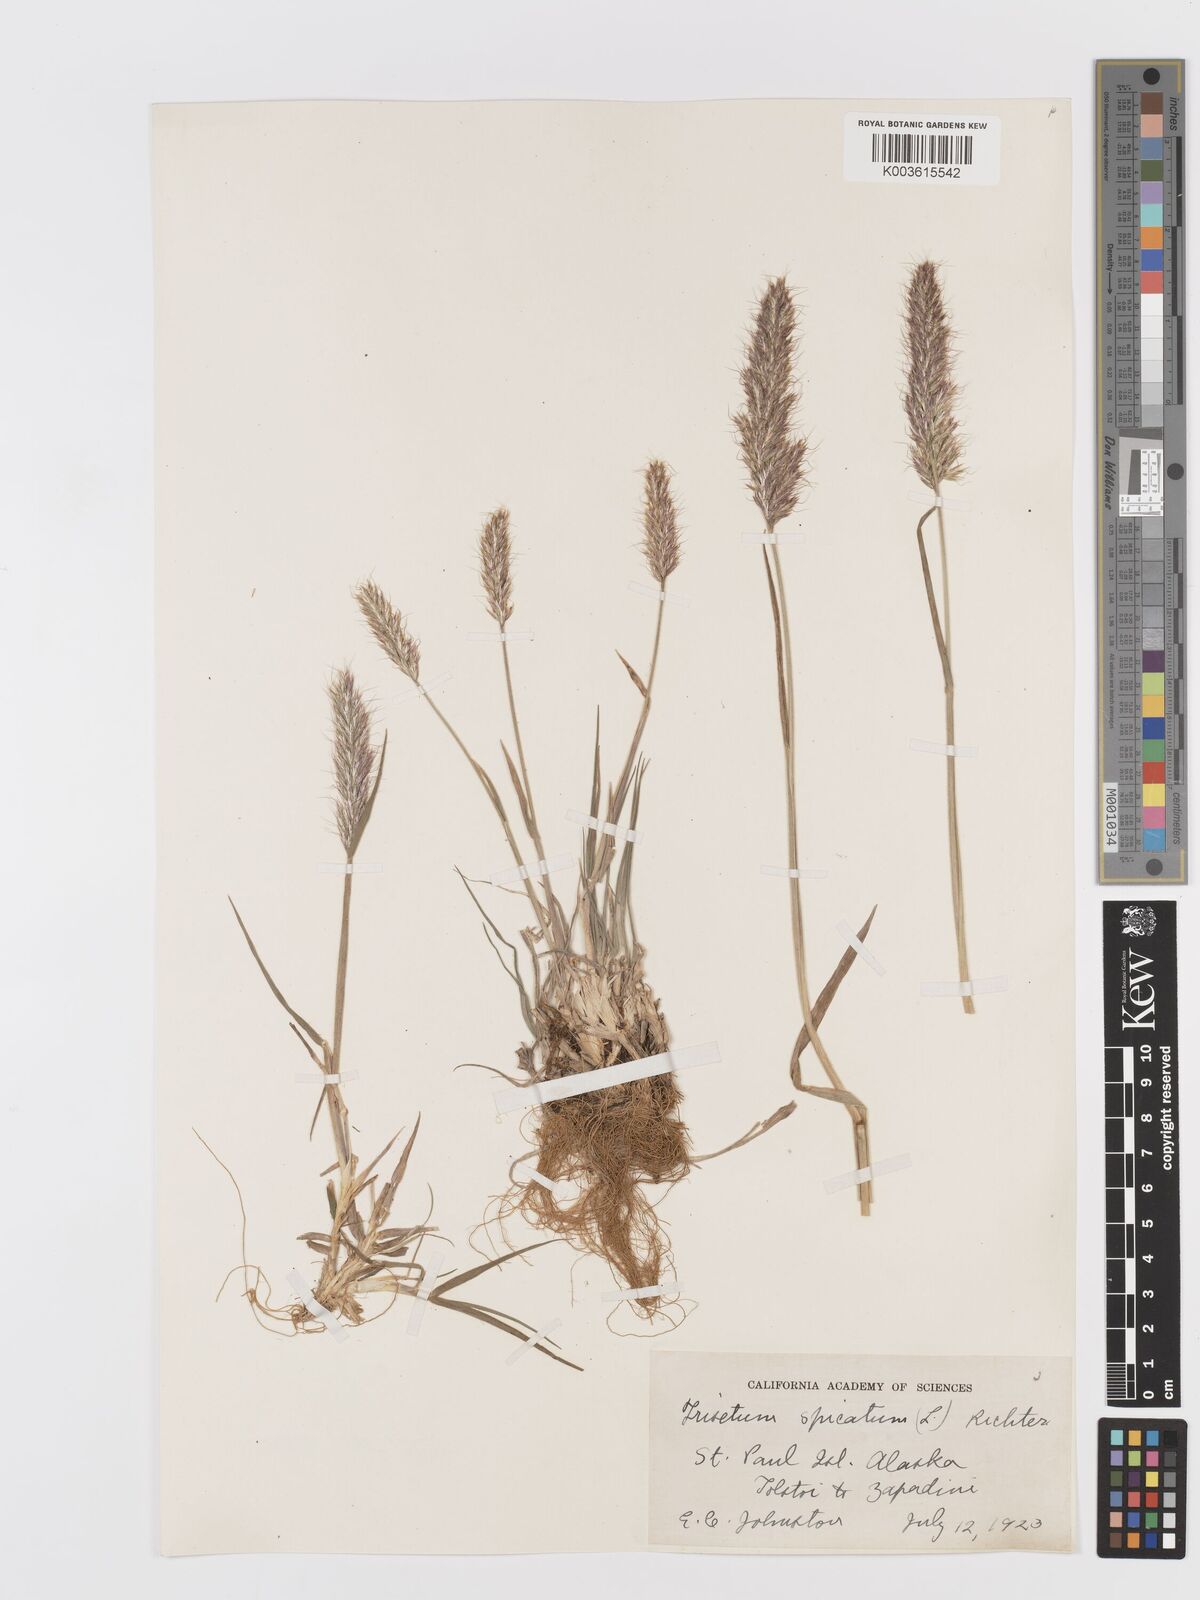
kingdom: Plantae
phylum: Tracheophyta
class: Liliopsida
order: Poales
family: Poaceae
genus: Koeleria
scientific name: Koeleria spicata
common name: Mountain trisetum
